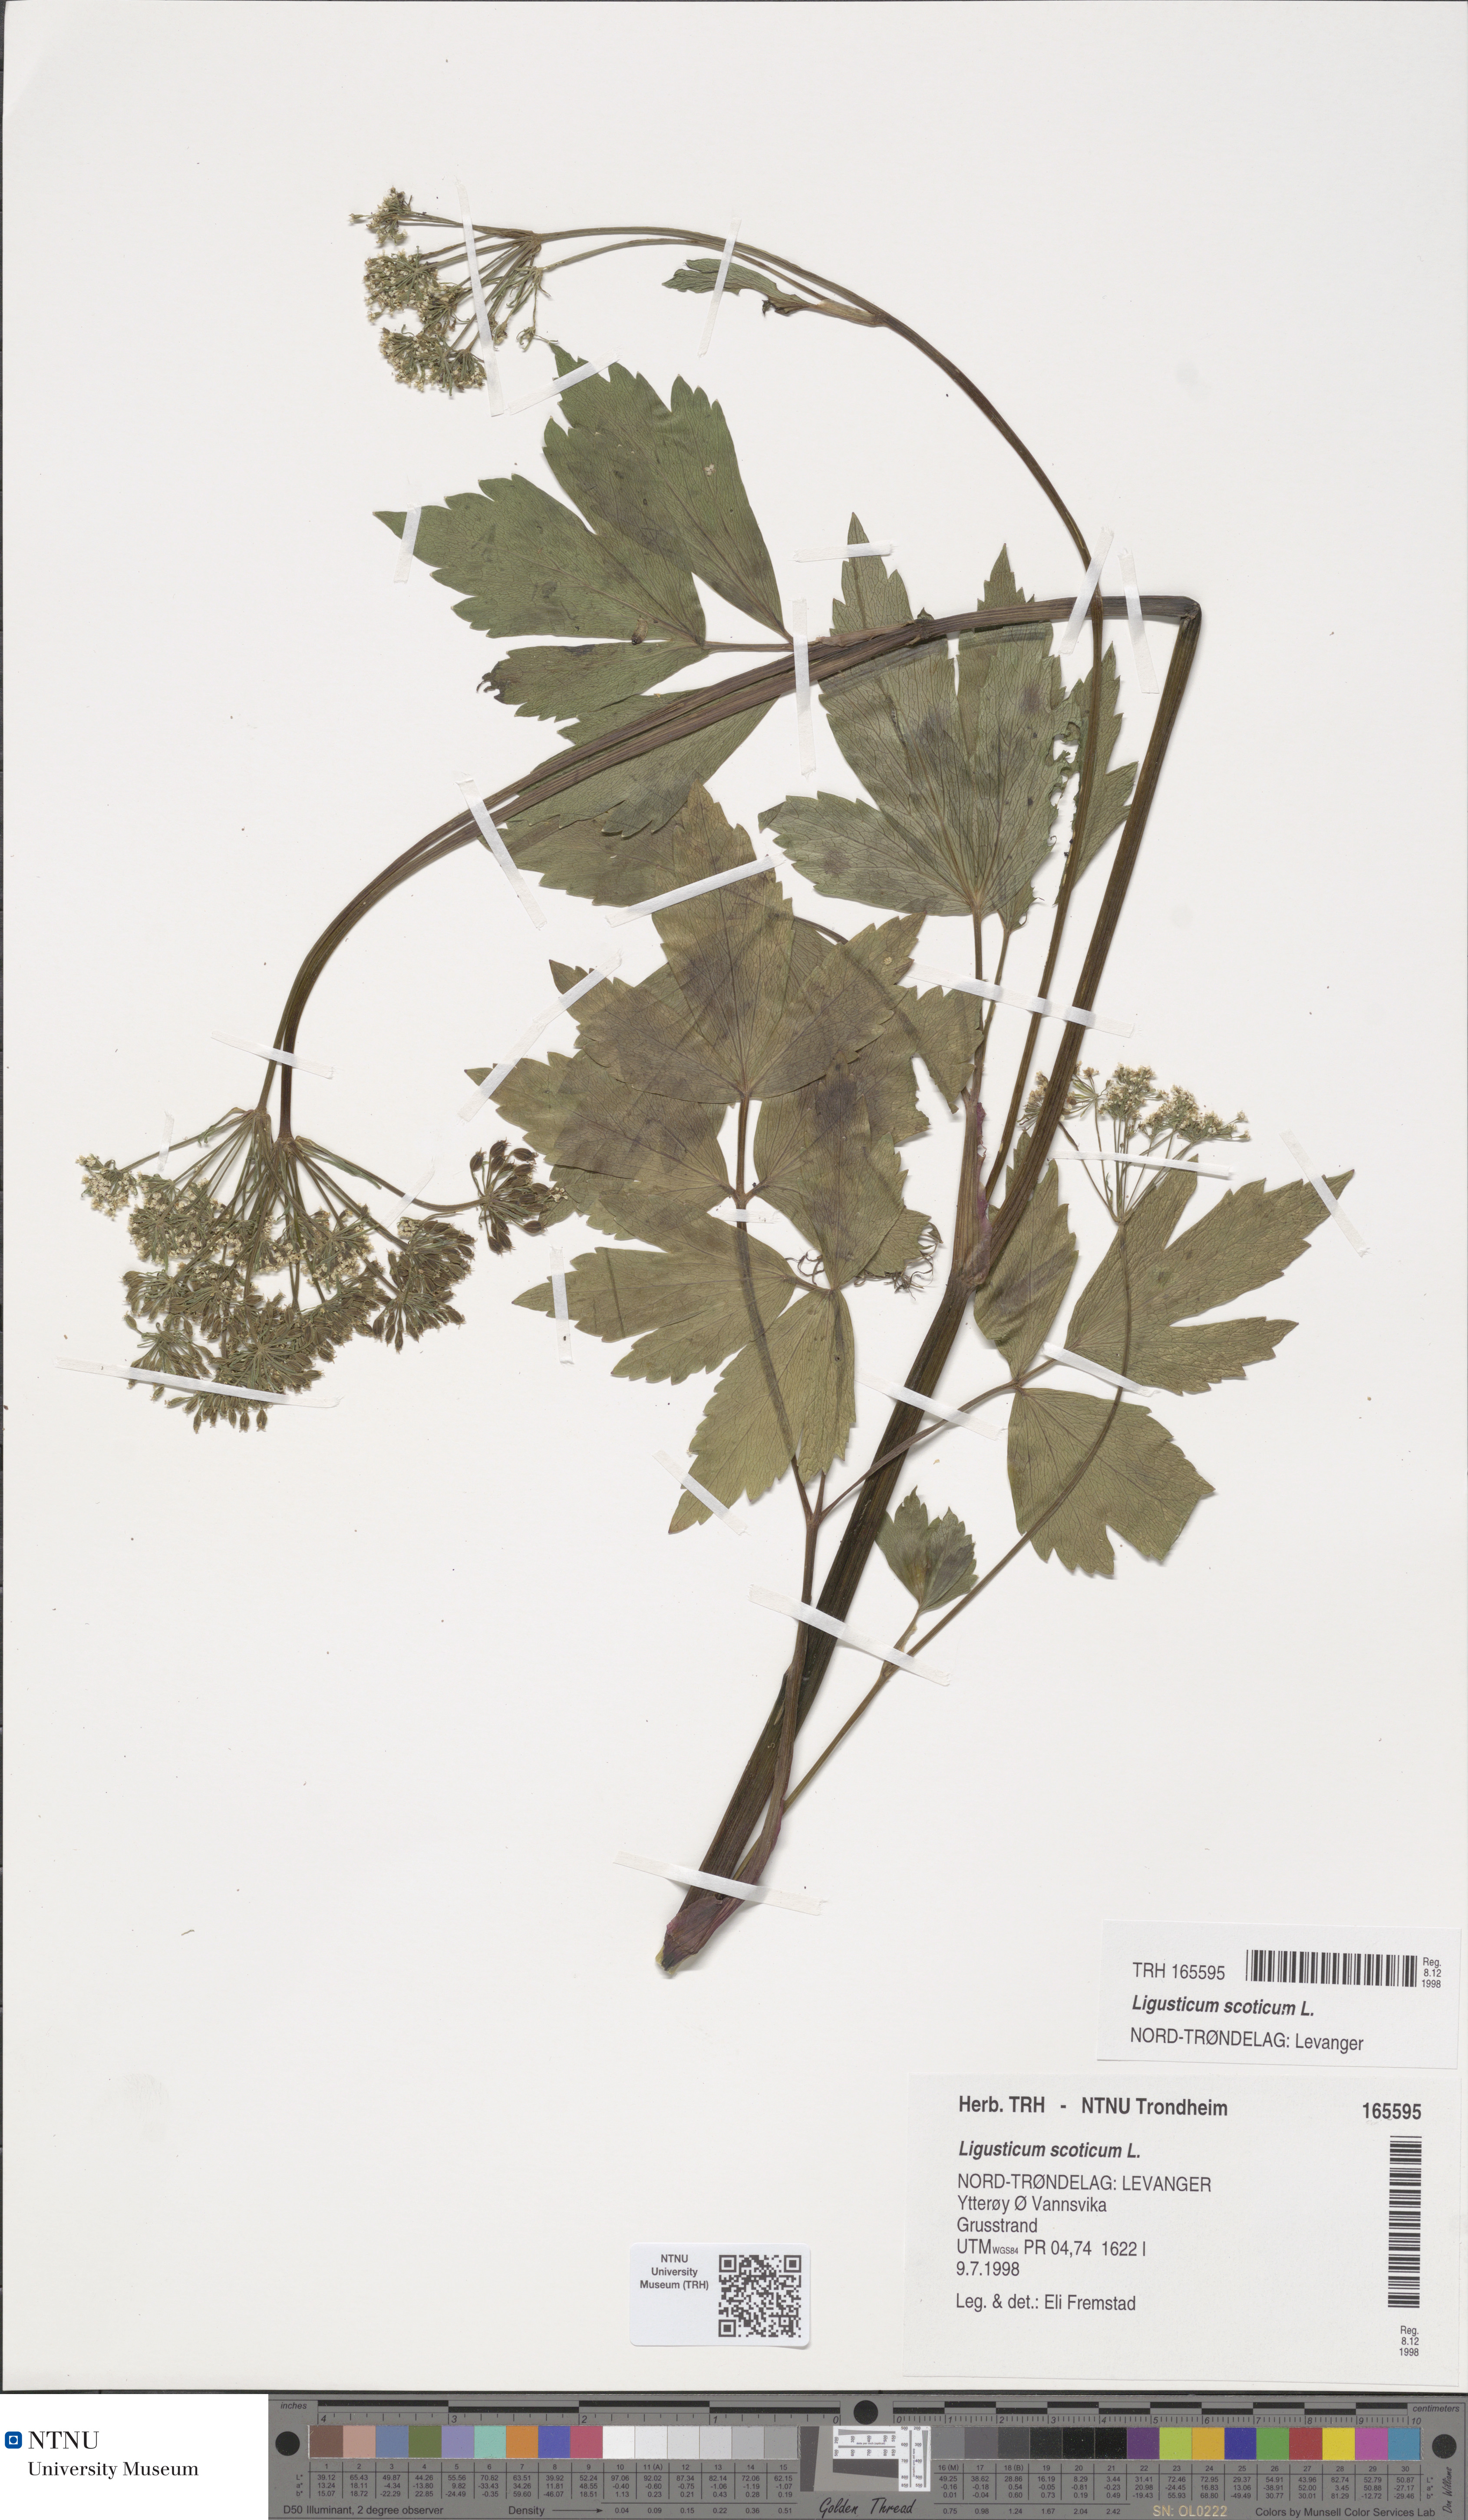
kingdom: Plantae
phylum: Tracheophyta
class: Magnoliopsida
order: Apiales
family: Apiaceae
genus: Ligusticum
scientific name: Ligusticum scothicum
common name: Beach lovage
